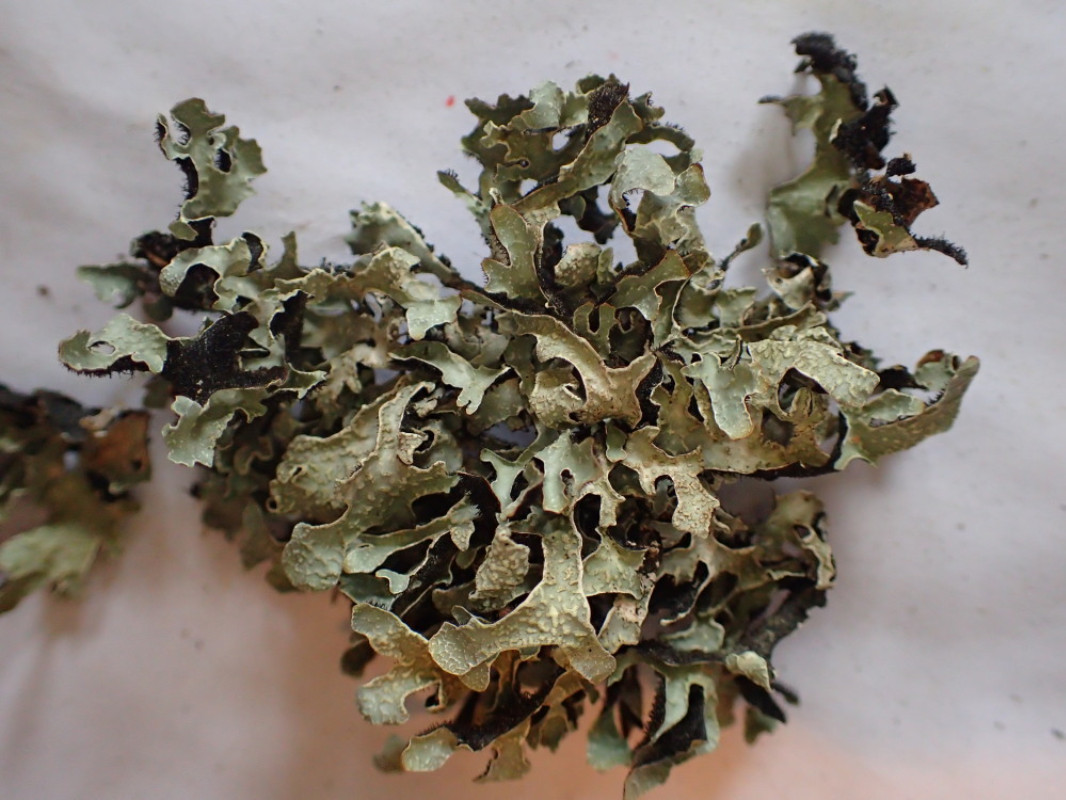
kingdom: Fungi
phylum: Ascomycota
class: Lecanoromycetes
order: Lecanorales
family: Parmeliaceae
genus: Parmelia
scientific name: Parmelia sulcata
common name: rynket skållav
